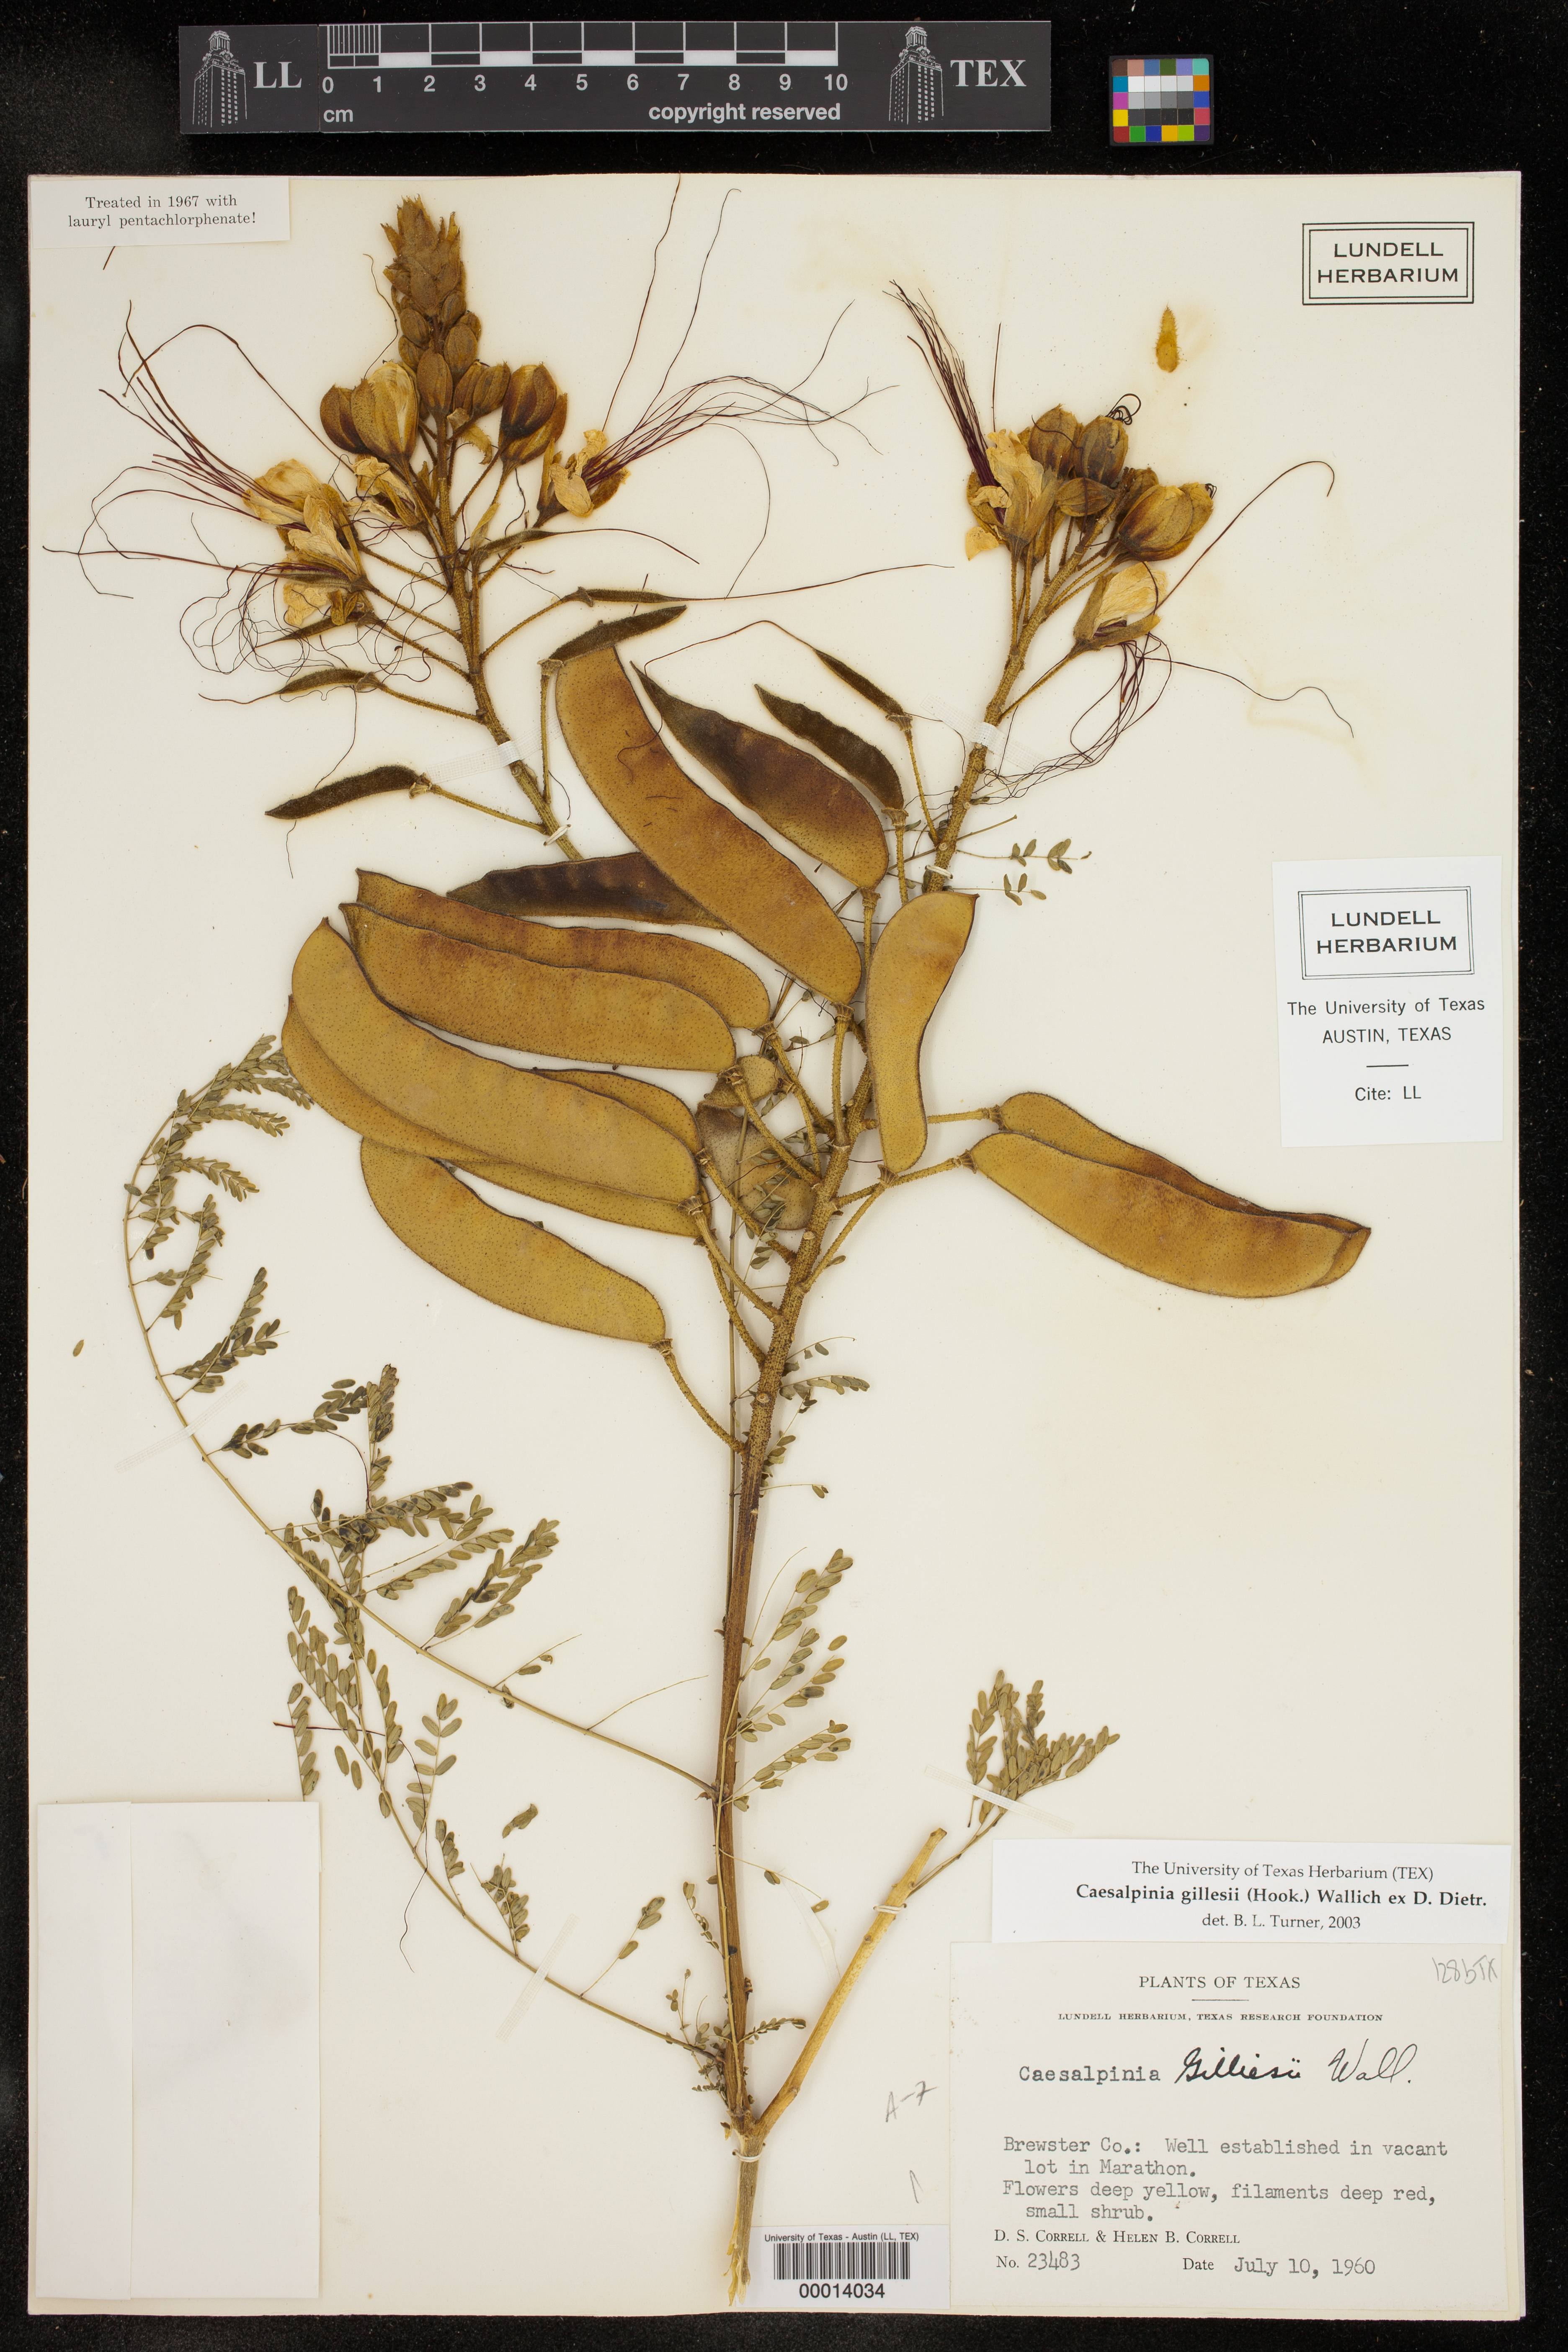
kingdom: Plantae
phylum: Tracheophyta
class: Magnoliopsida
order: Fabales
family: Fabaceae
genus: Erythrostemon
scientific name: Erythrostemon
